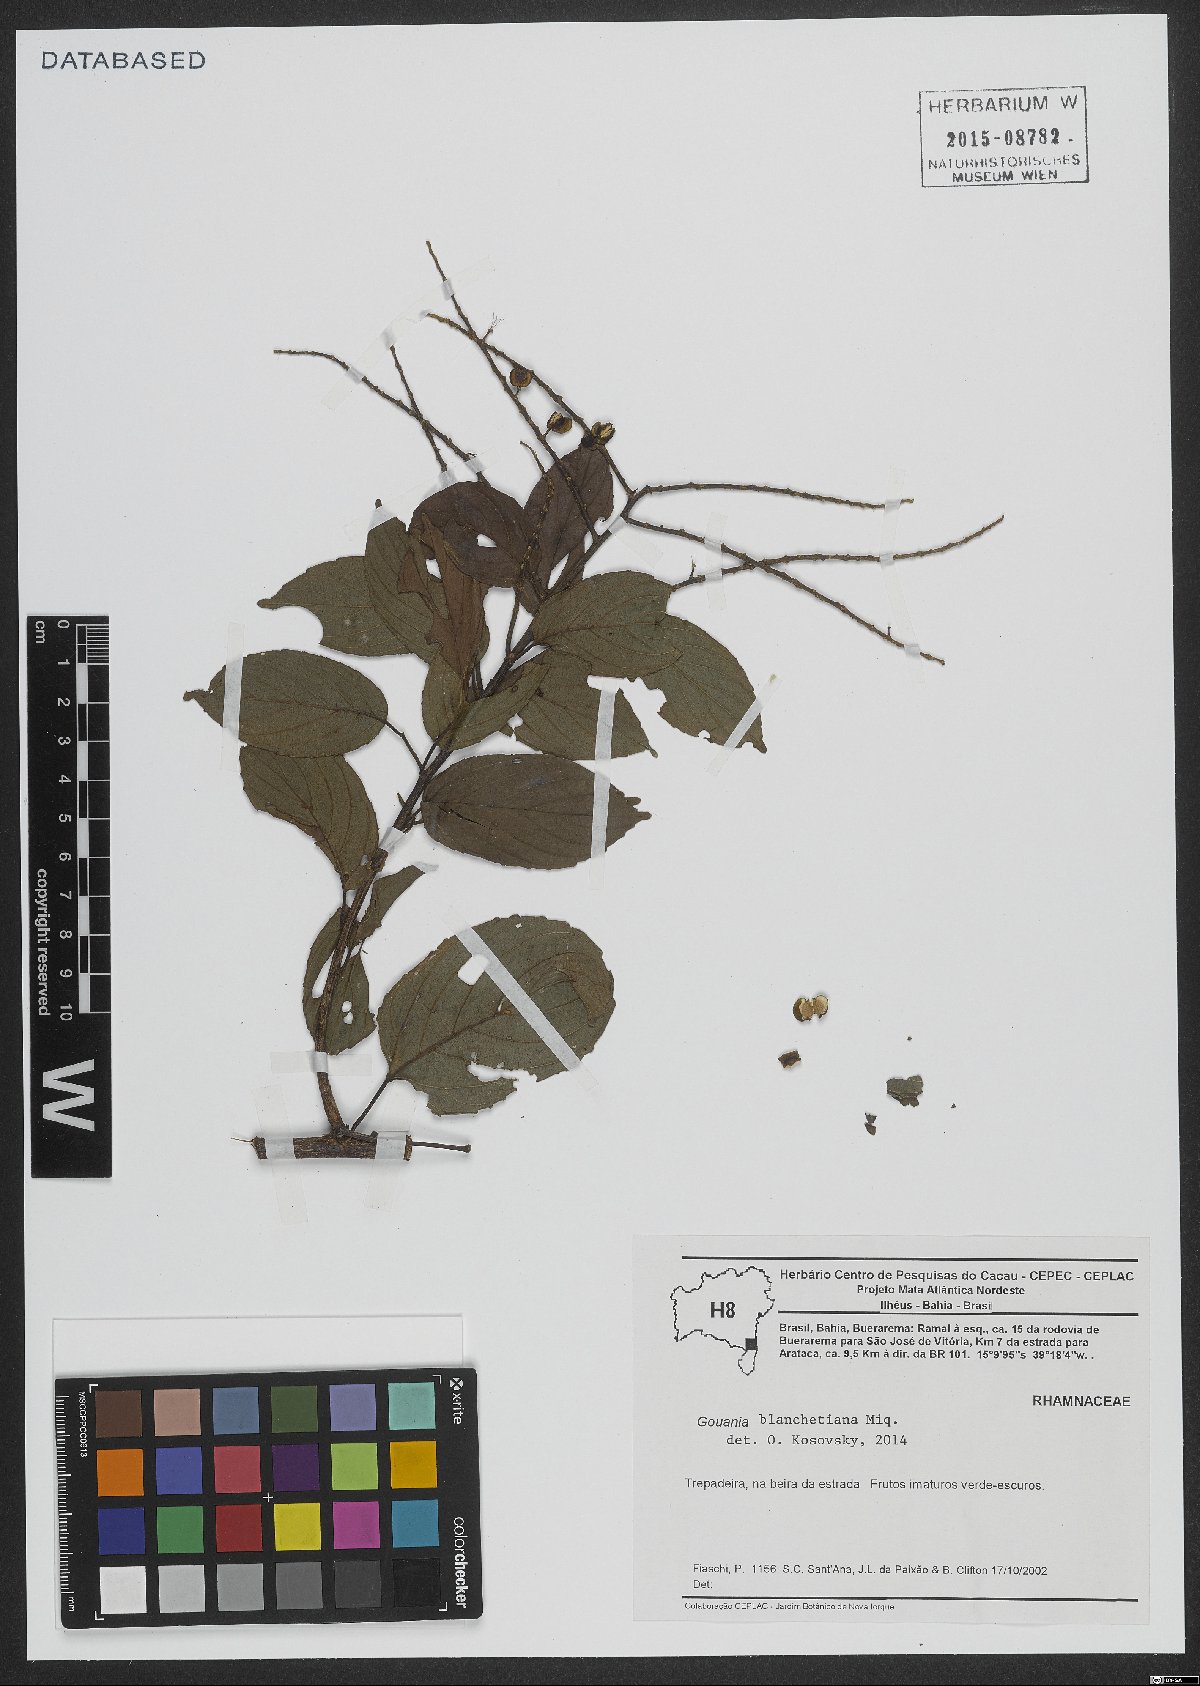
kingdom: Plantae
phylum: Tracheophyta
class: Magnoliopsida
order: Rosales
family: Rhamnaceae
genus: Gouania
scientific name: Gouania blanchetiana
